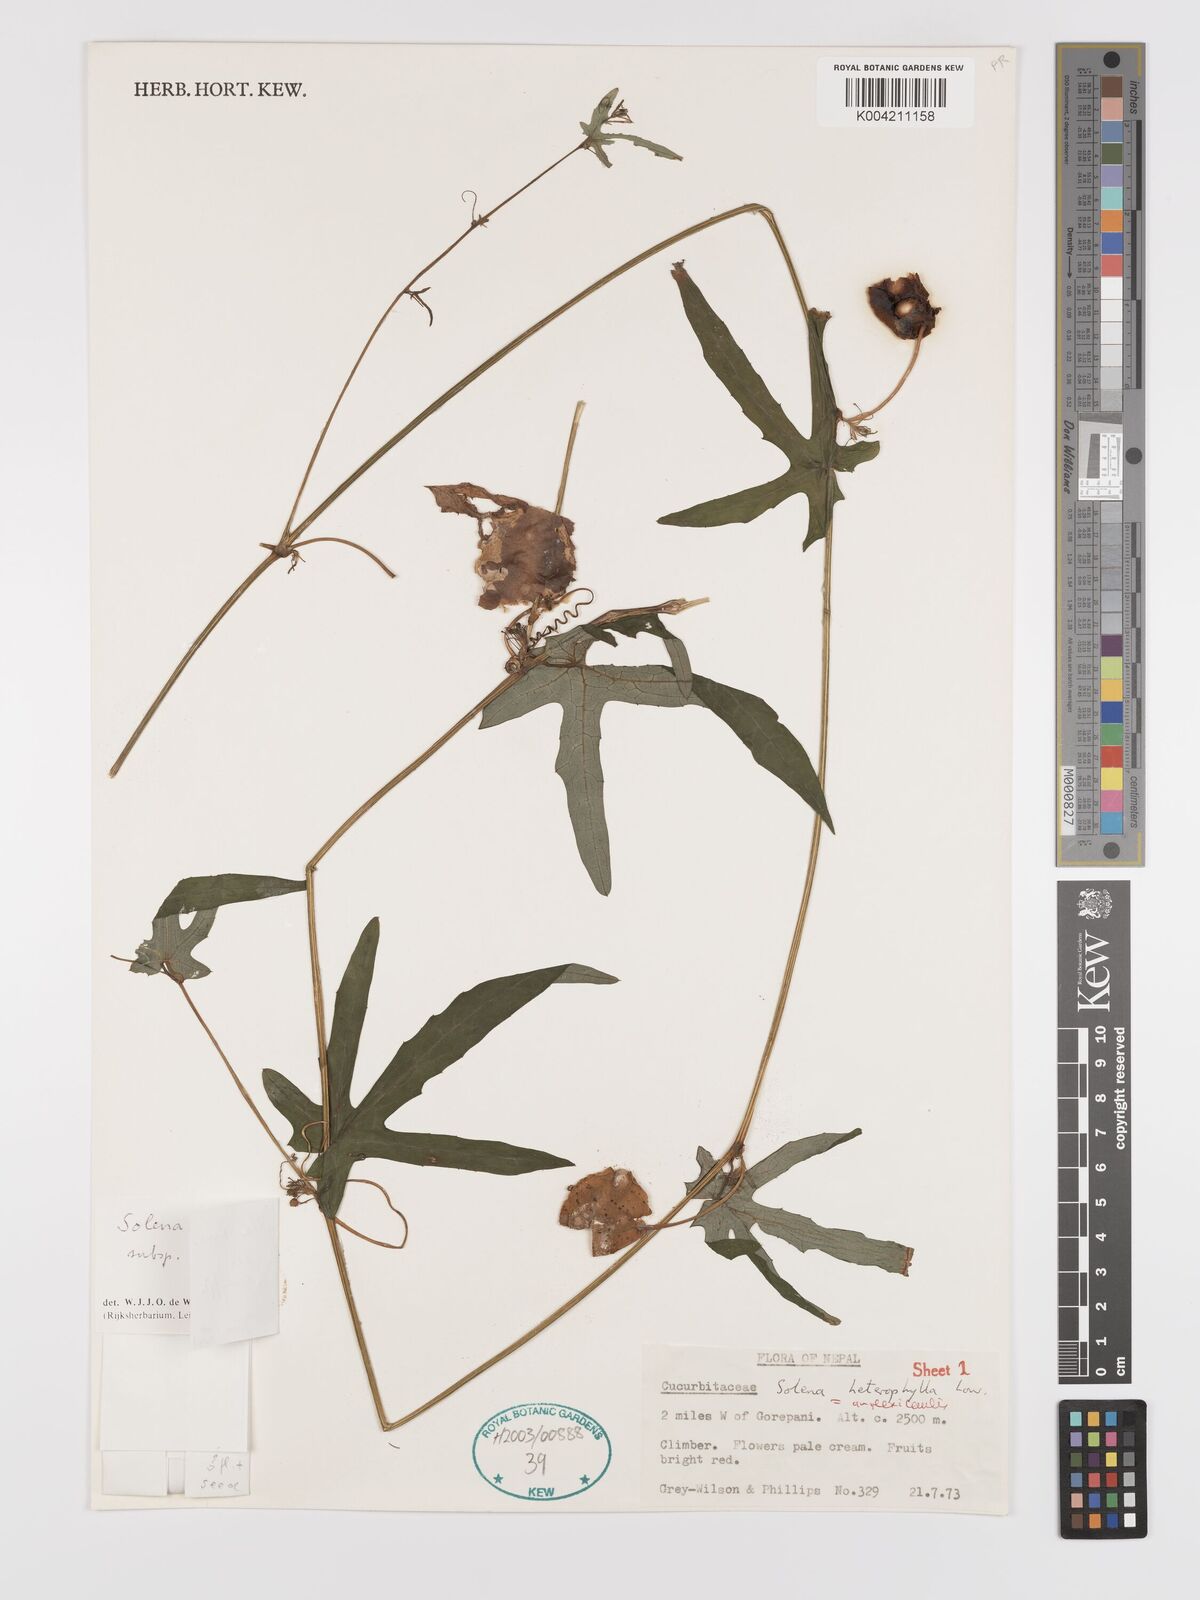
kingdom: Plantae
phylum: Tracheophyta
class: Magnoliopsida
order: Cucurbitales
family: Cucurbitaceae
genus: Solena
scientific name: Solena
